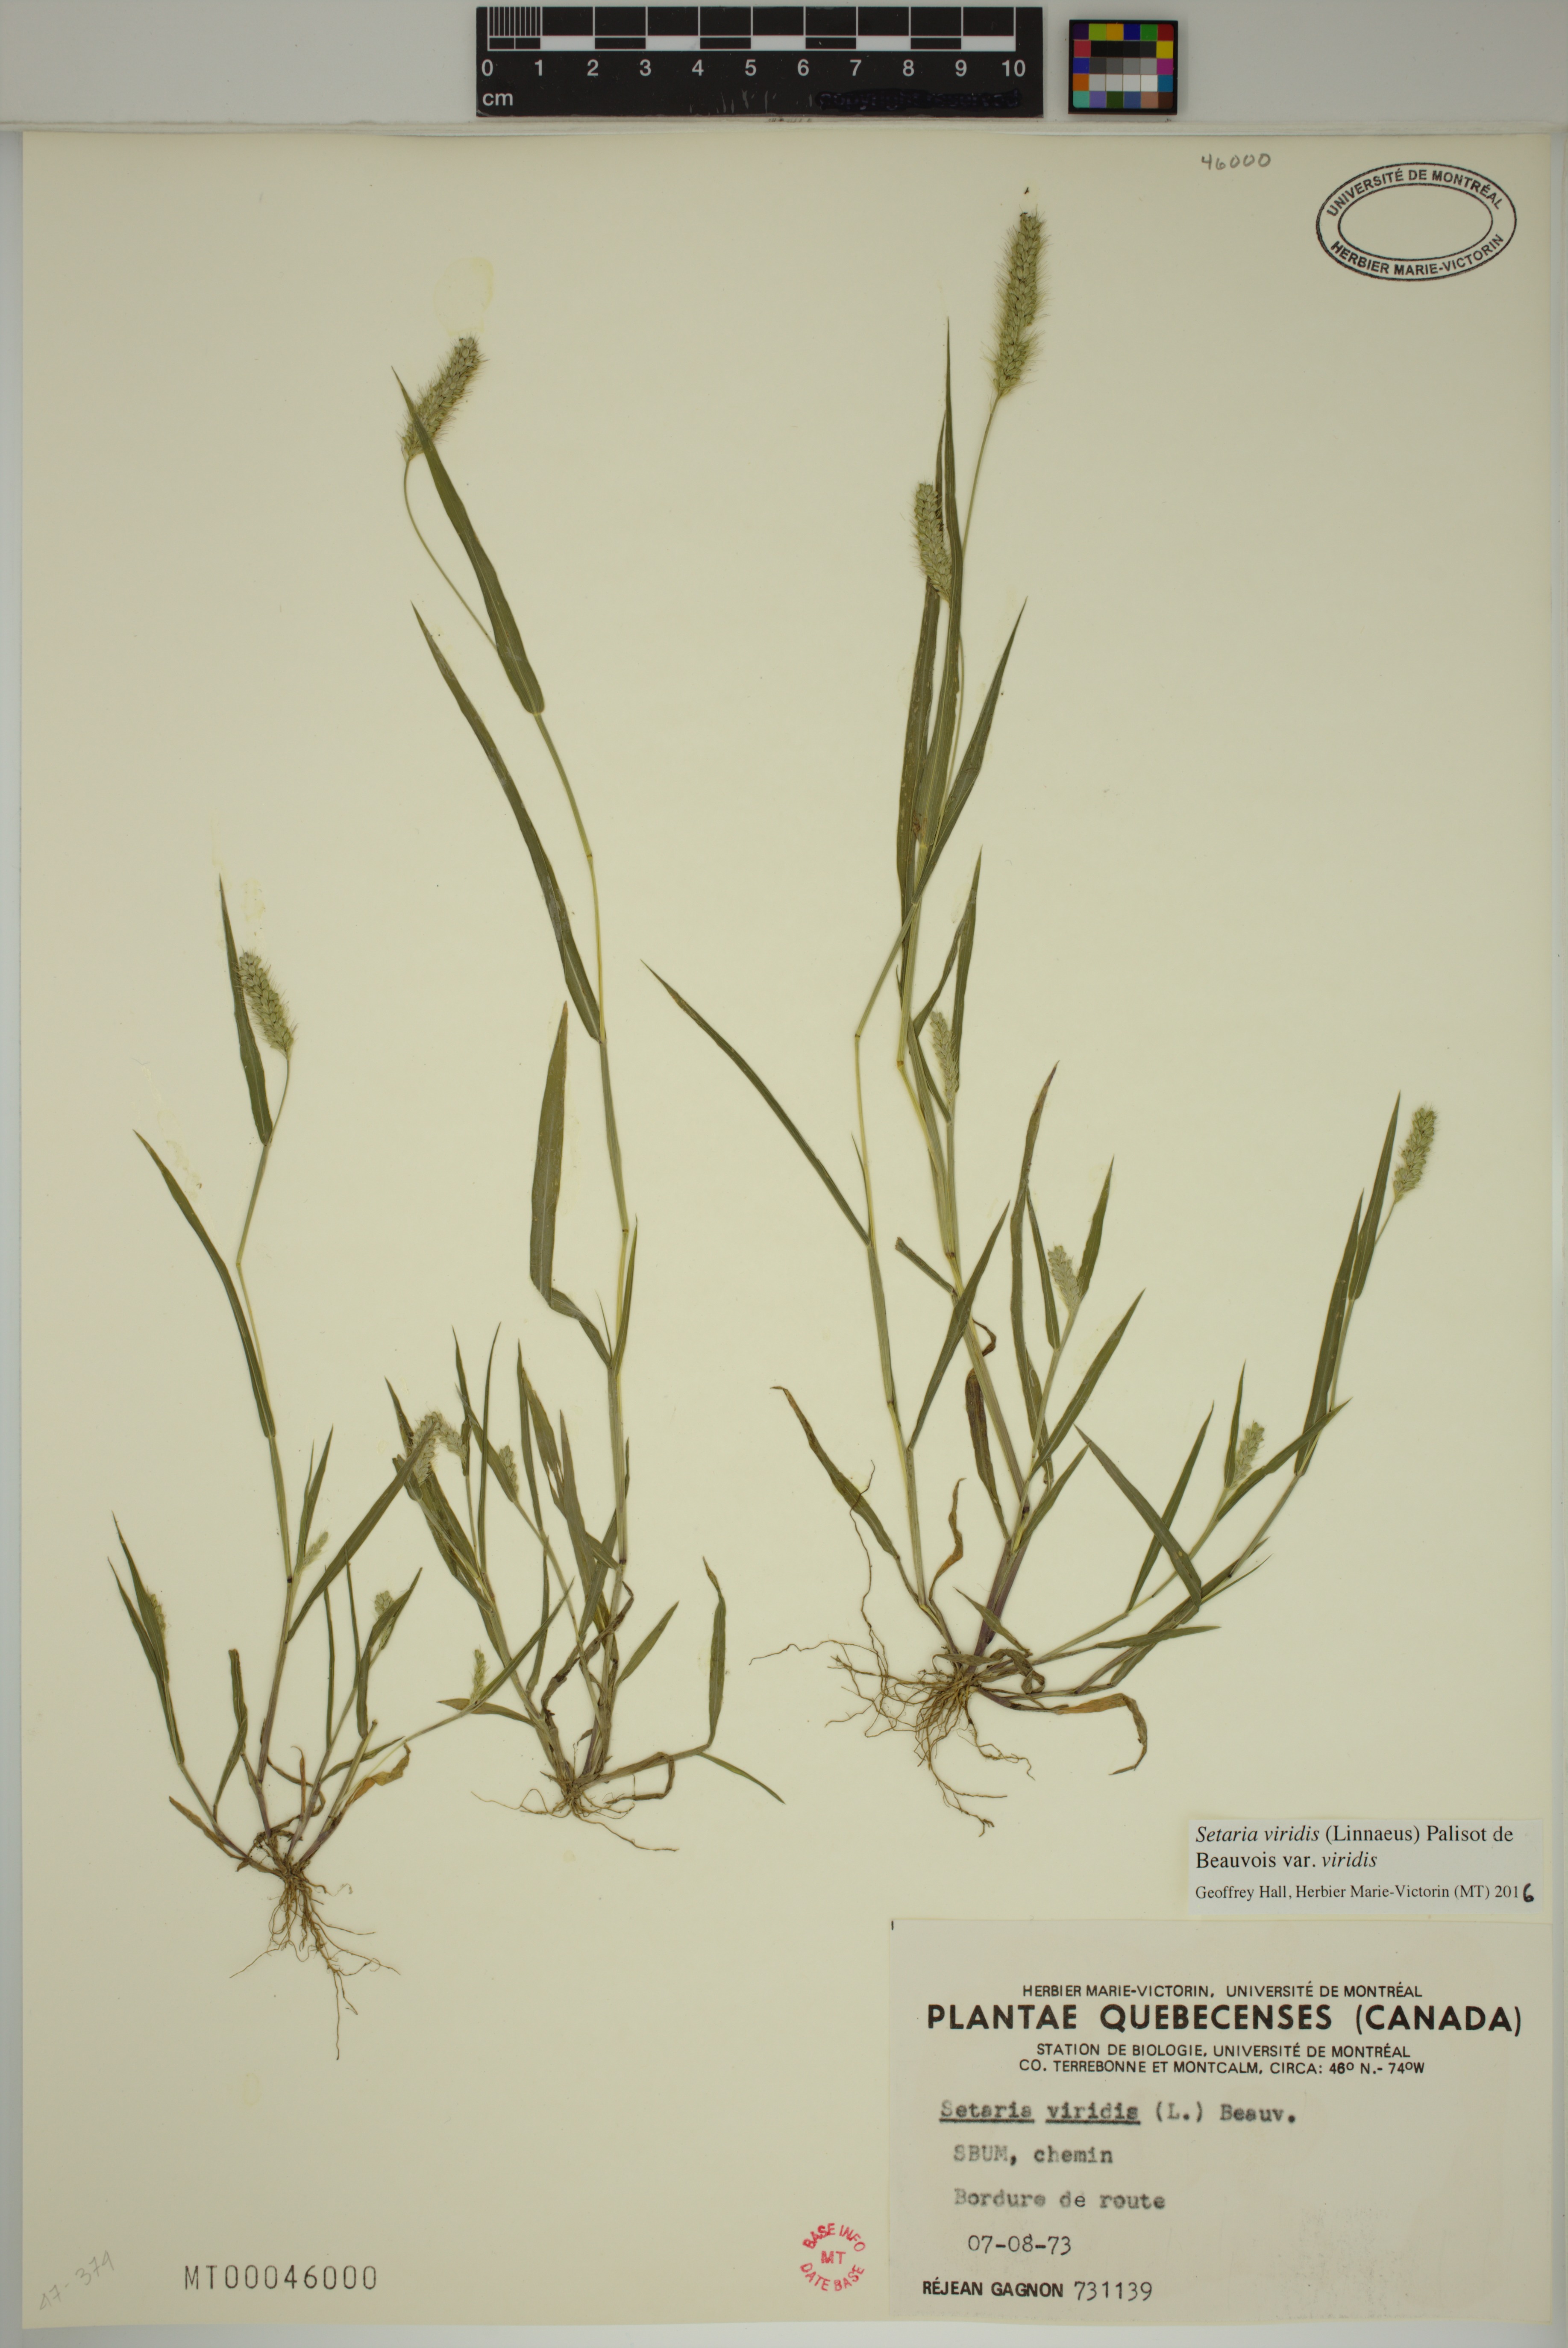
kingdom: Plantae
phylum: Tracheophyta
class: Liliopsida
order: Poales
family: Poaceae
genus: Setaria
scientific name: Setaria viridis
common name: Green bristlegrass
